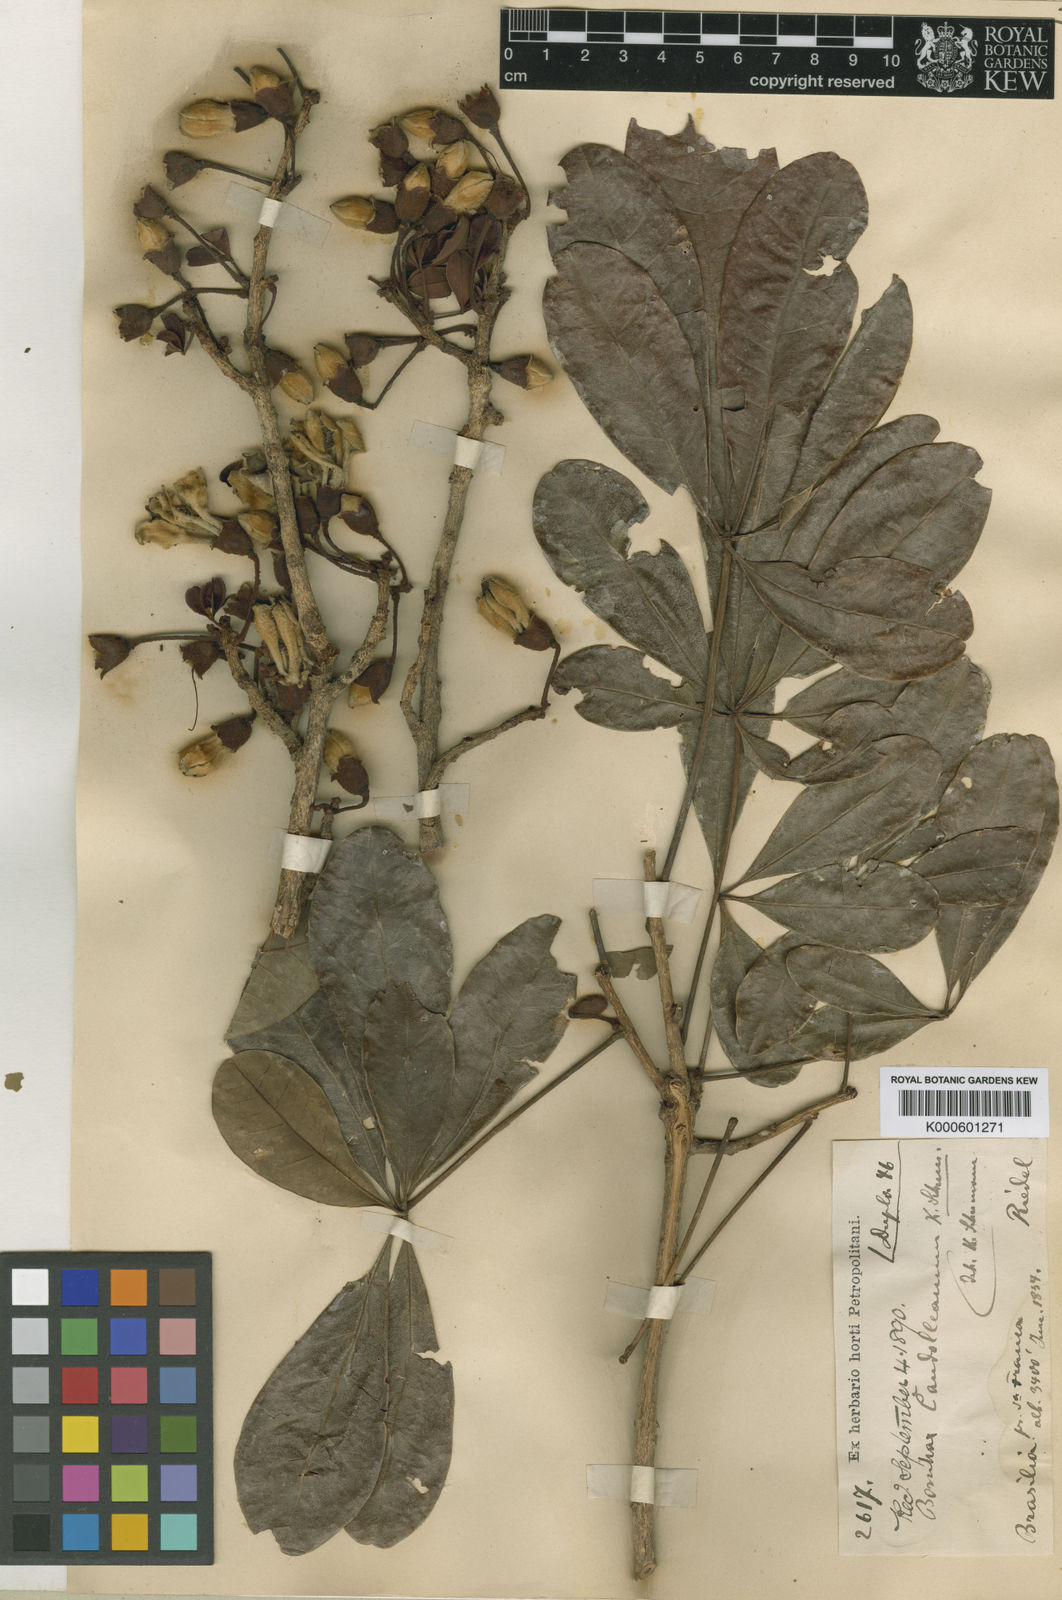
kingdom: Plantae
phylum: Tracheophyta
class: Magnoliopsida
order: Malvales
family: Malvaceae
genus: Eriotheca
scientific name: Eriotheca candolleana
